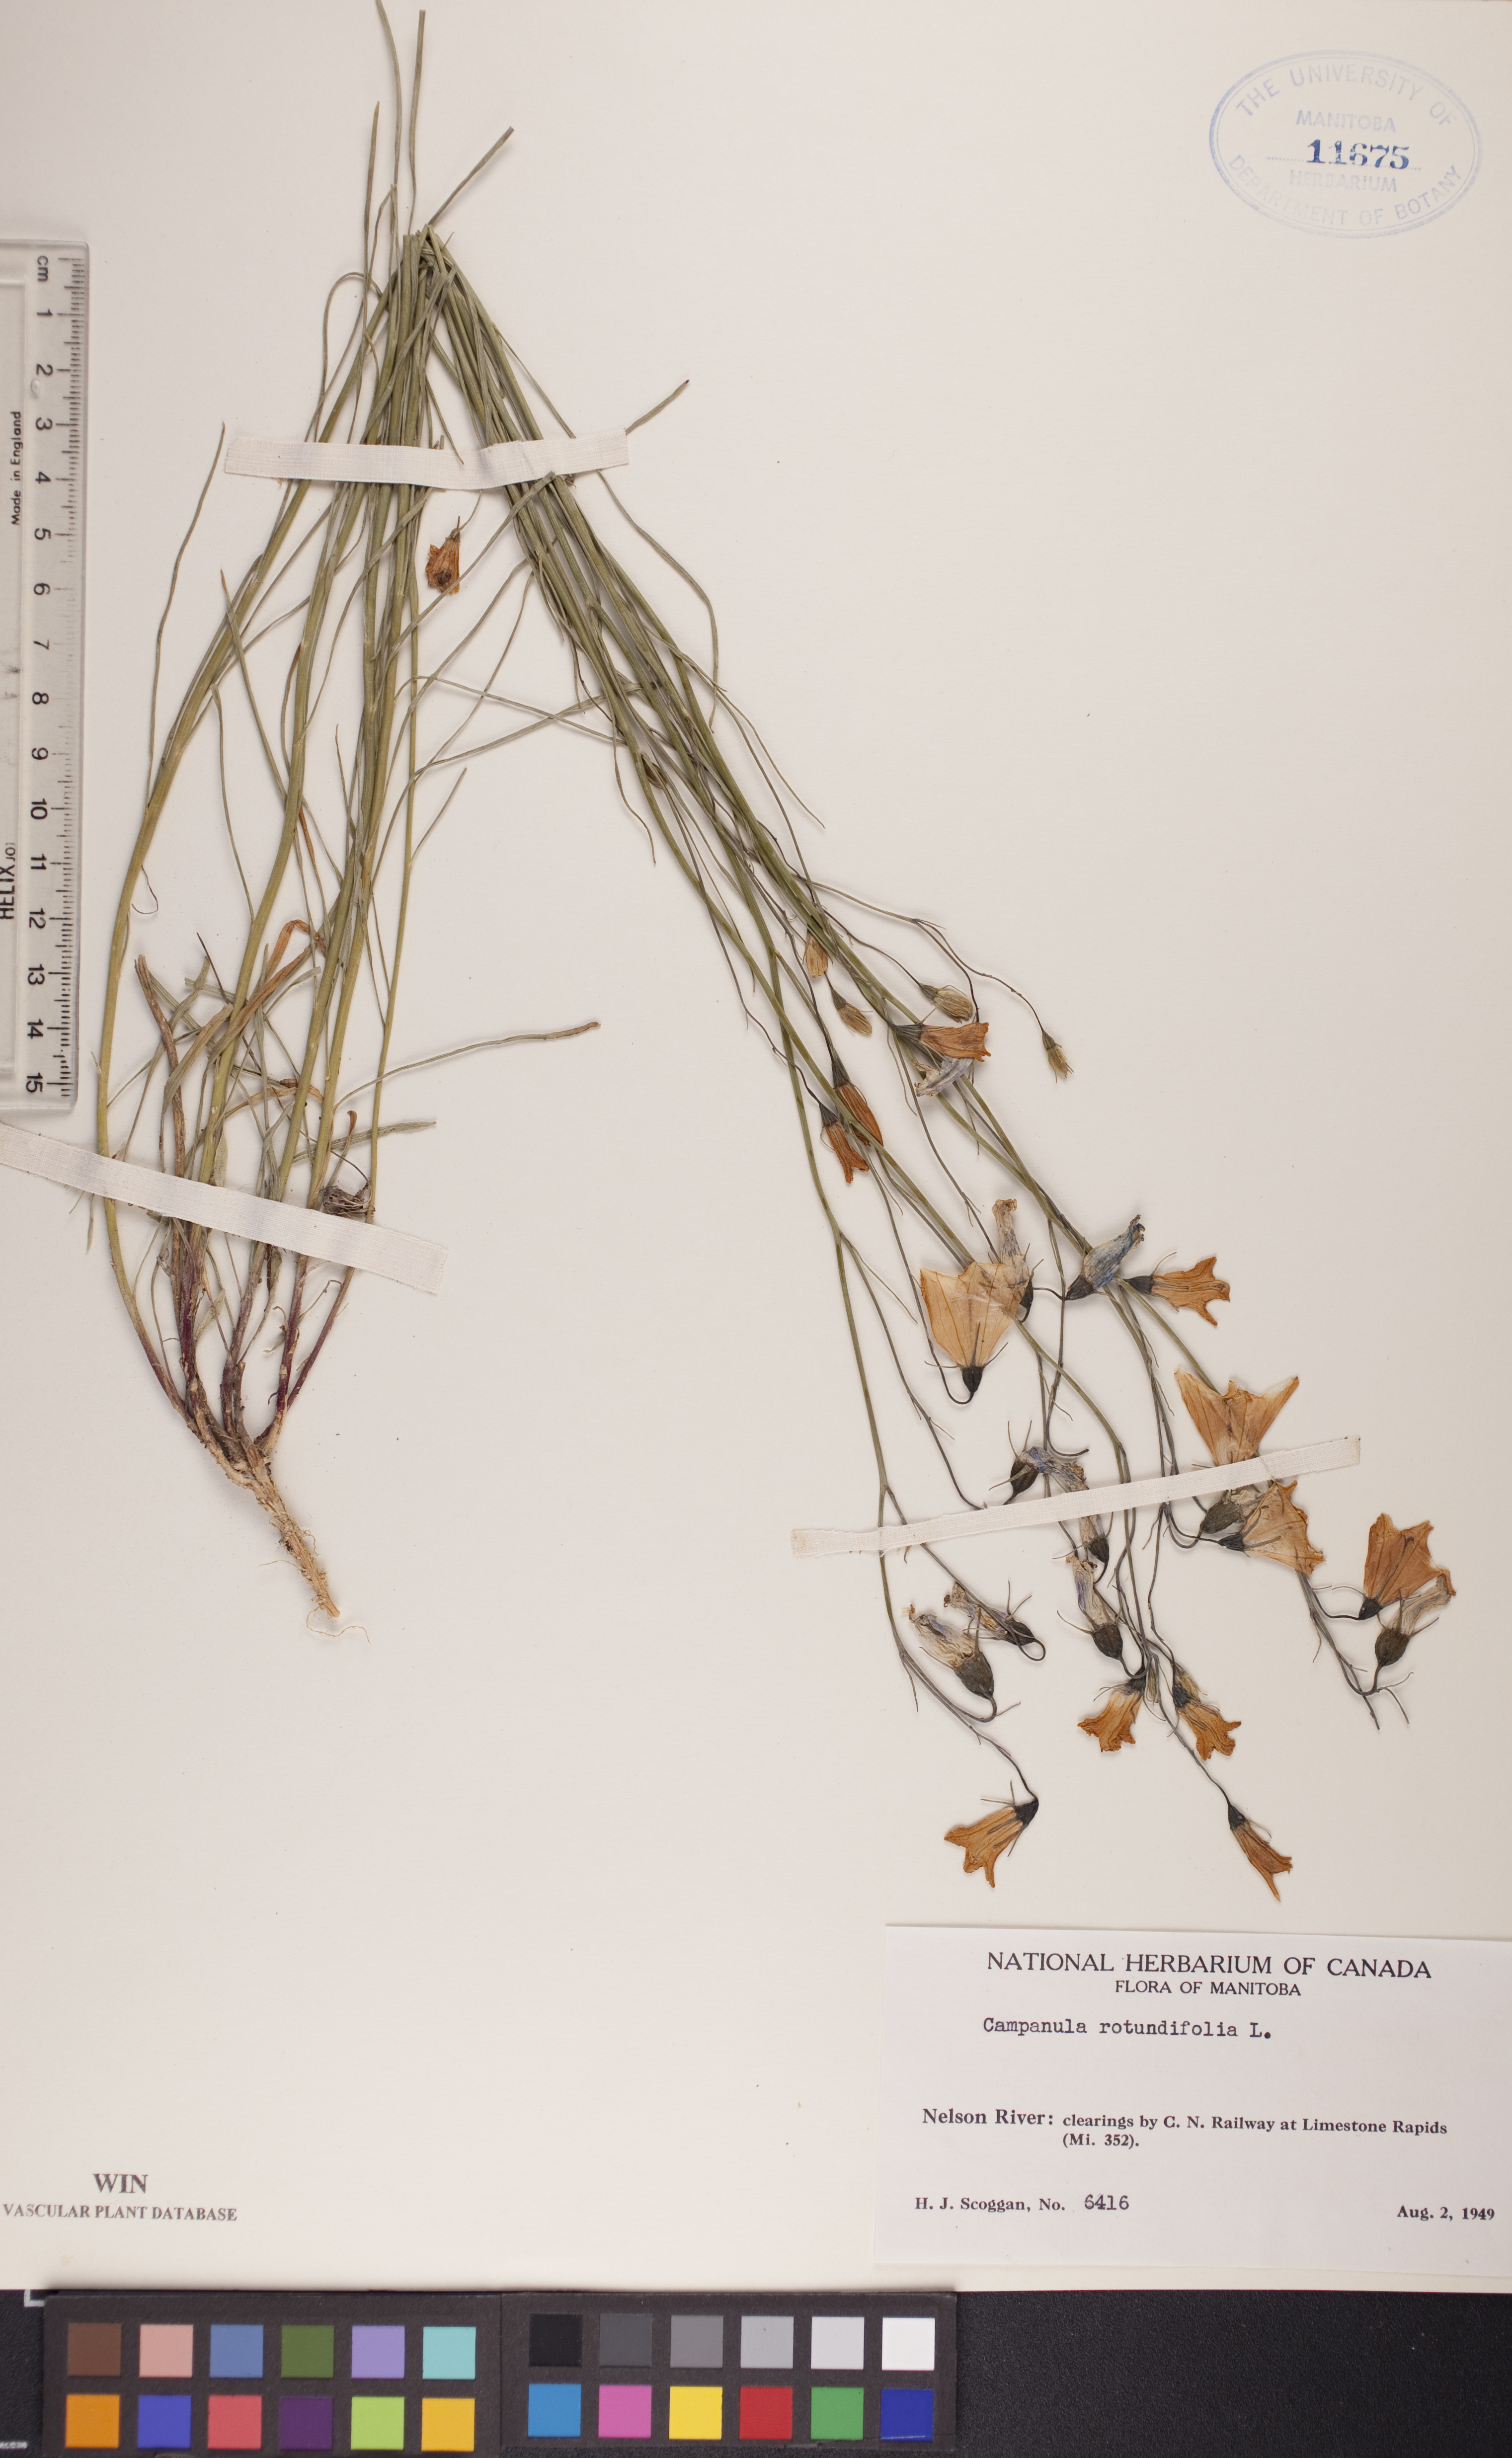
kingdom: Plantae
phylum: Tracheophyta
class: Magnoliopsida
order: Asterales
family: Campanulaceae
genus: Campanula
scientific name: Campanula rotundifolia
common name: Harebell
